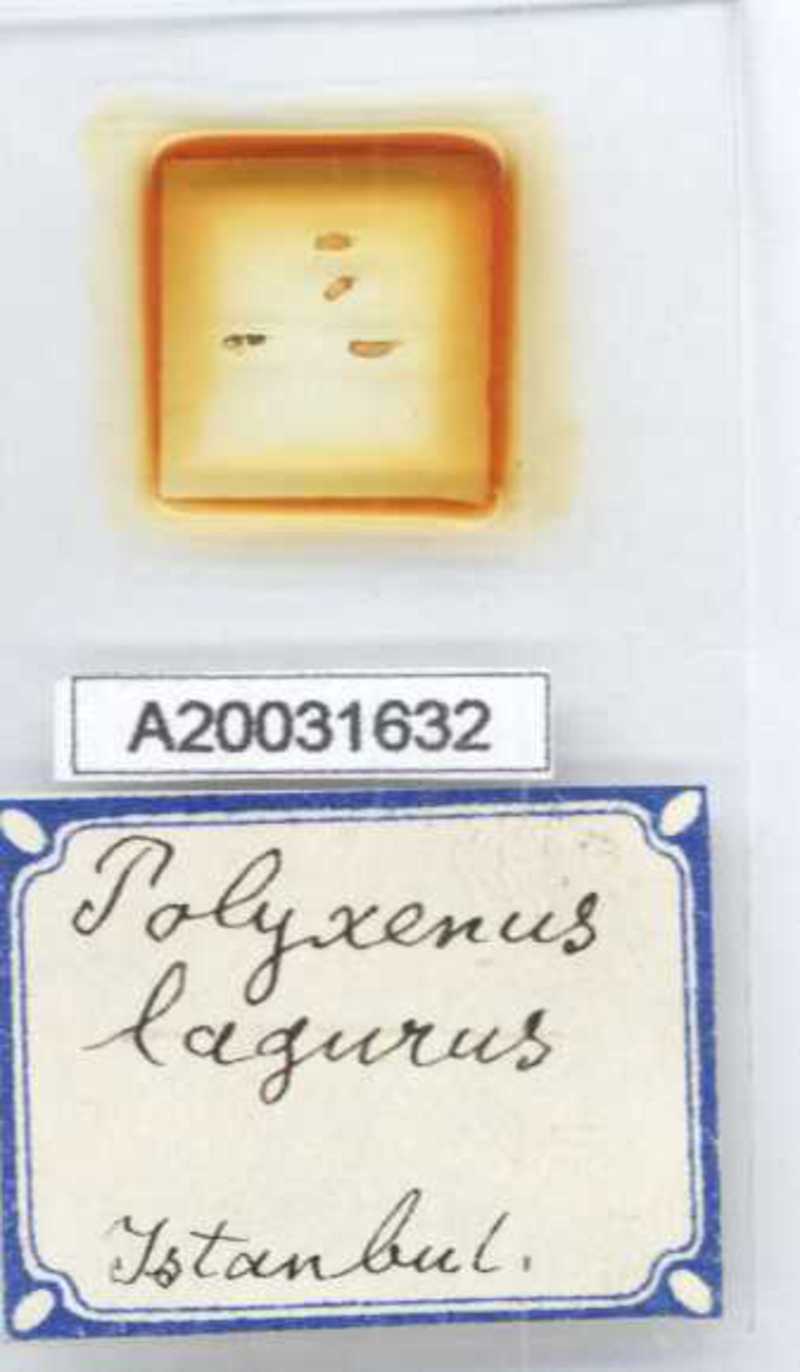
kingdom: Animalia
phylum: Arthropoda
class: Diplopoda
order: Polyxenida
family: Polyxenidae
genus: Polyxenus
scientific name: Polyxenus lagurus
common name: Bristly millipede
